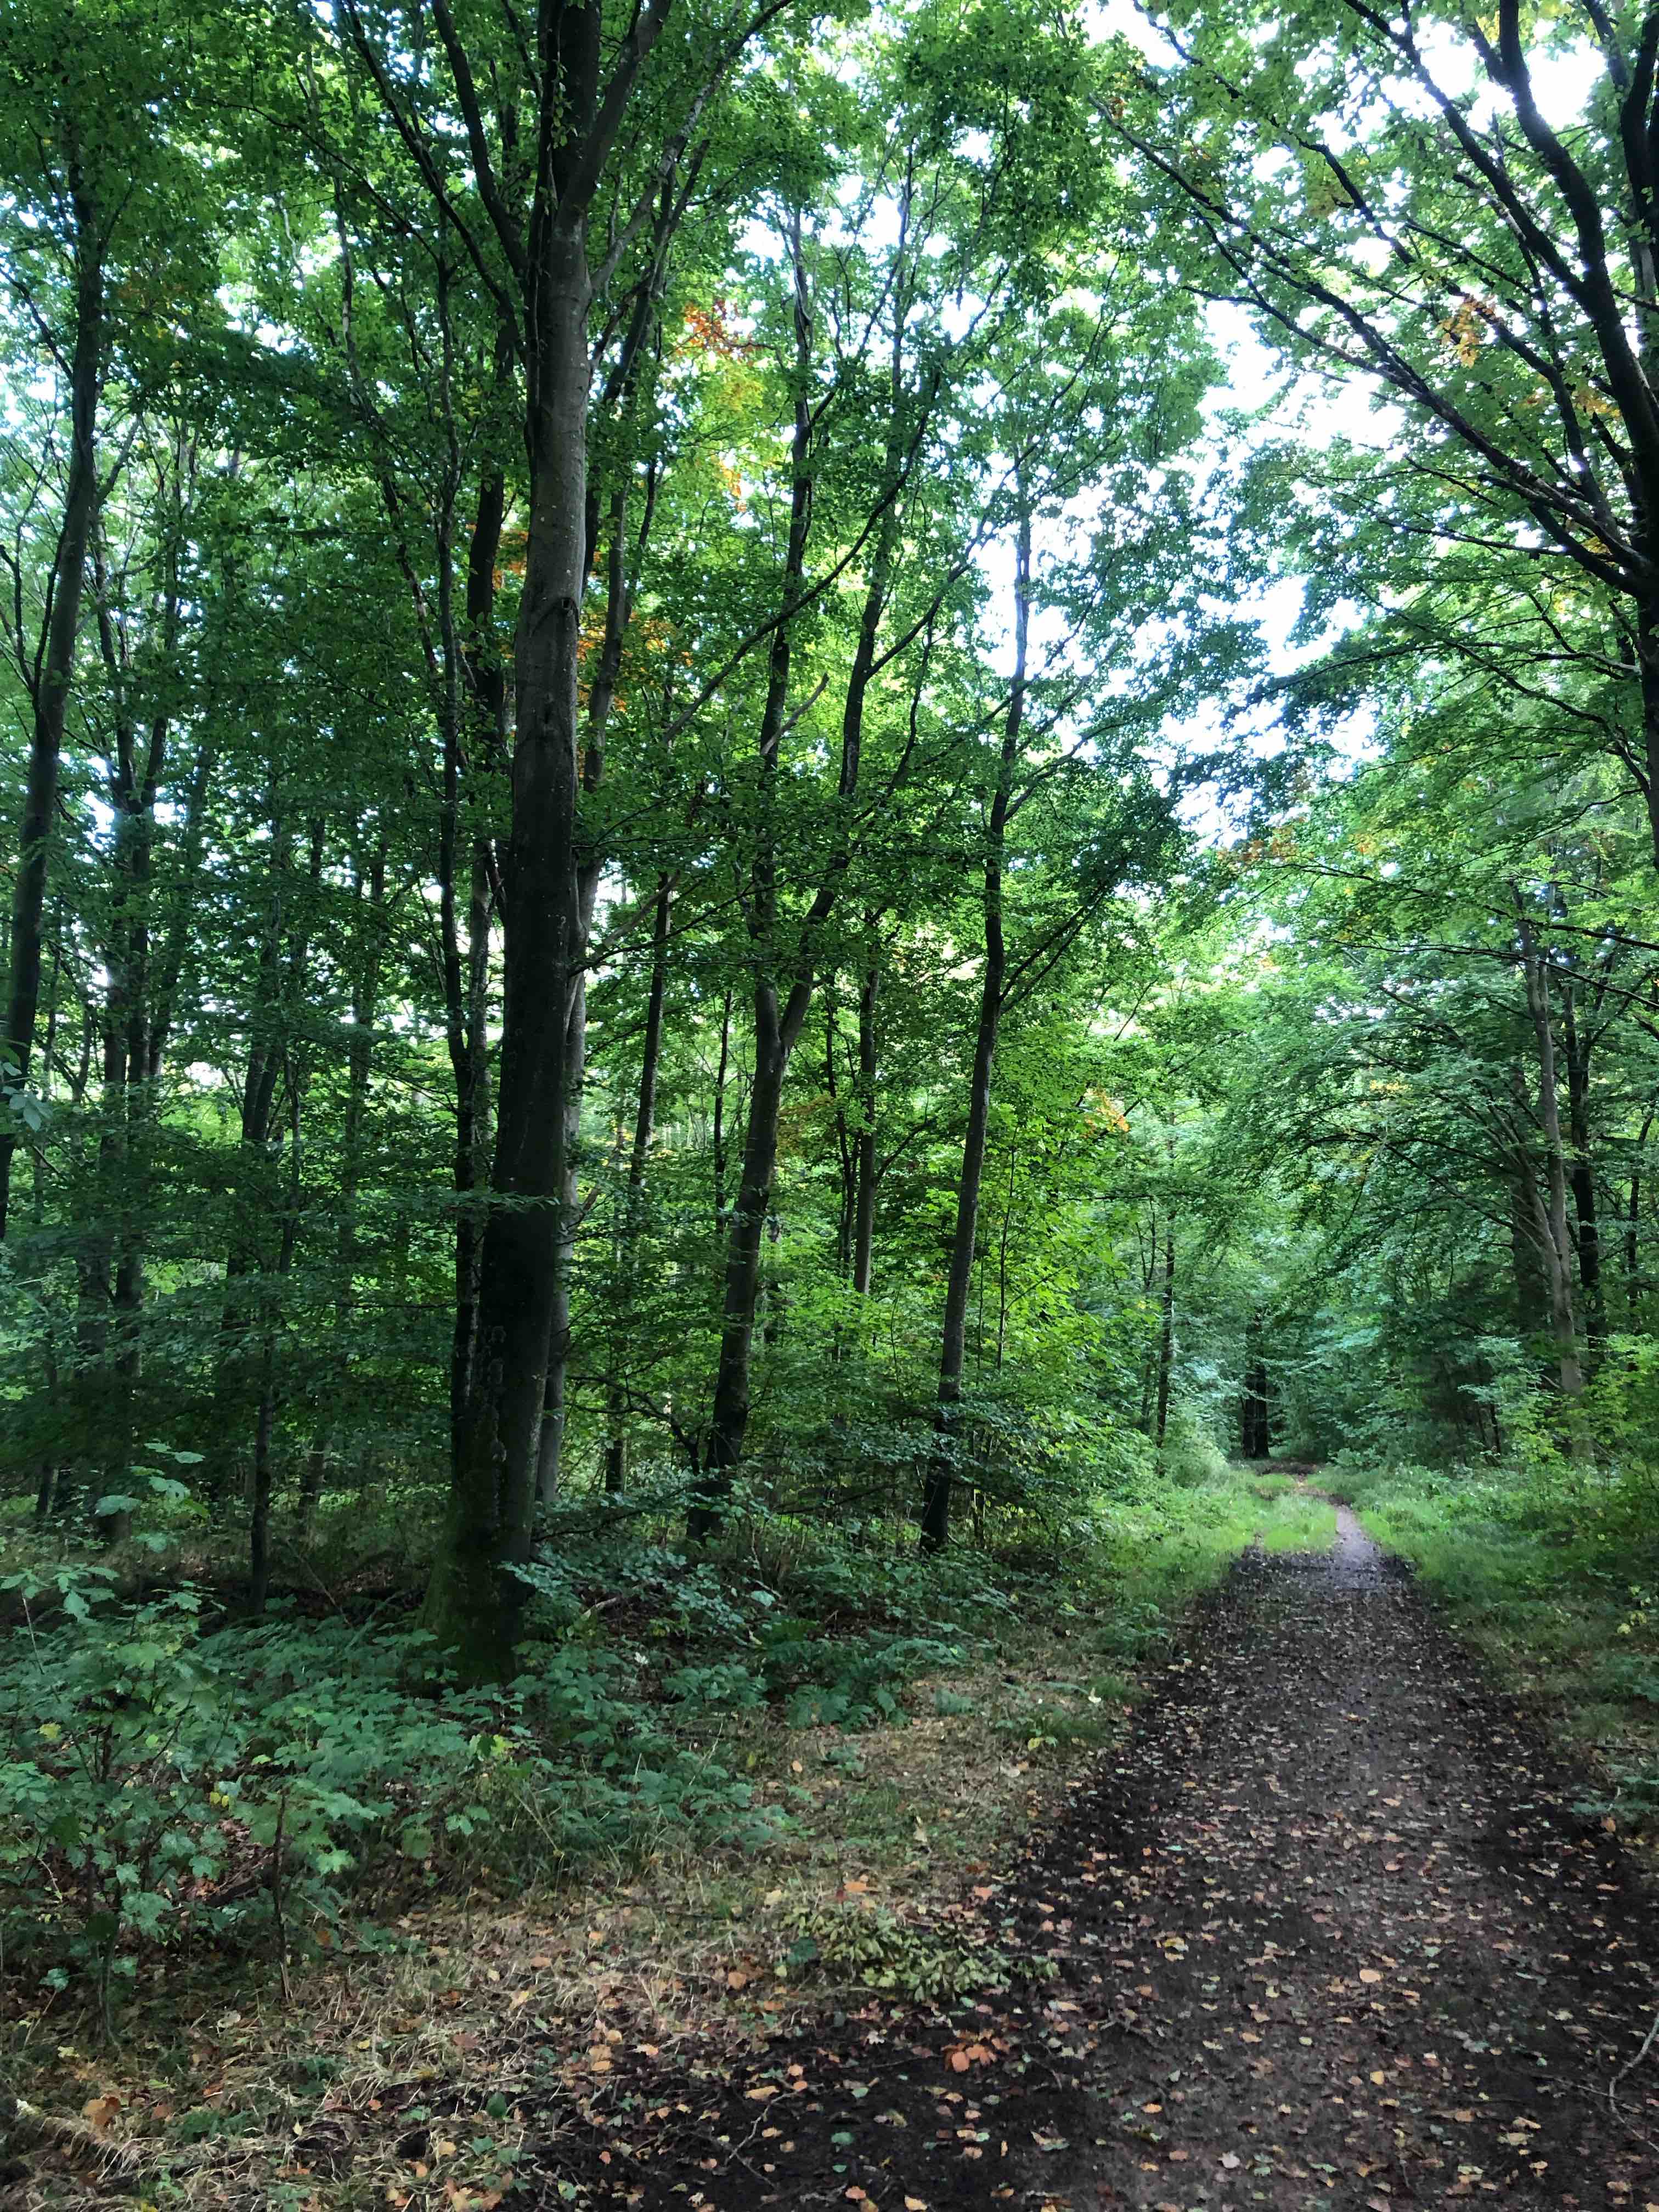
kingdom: Fungi
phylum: Basidiomycota
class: Agaricomycetes
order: Russulales
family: Russulaceae
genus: Lactarius
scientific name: Lactarius fluens
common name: lysrandet mælkehat
